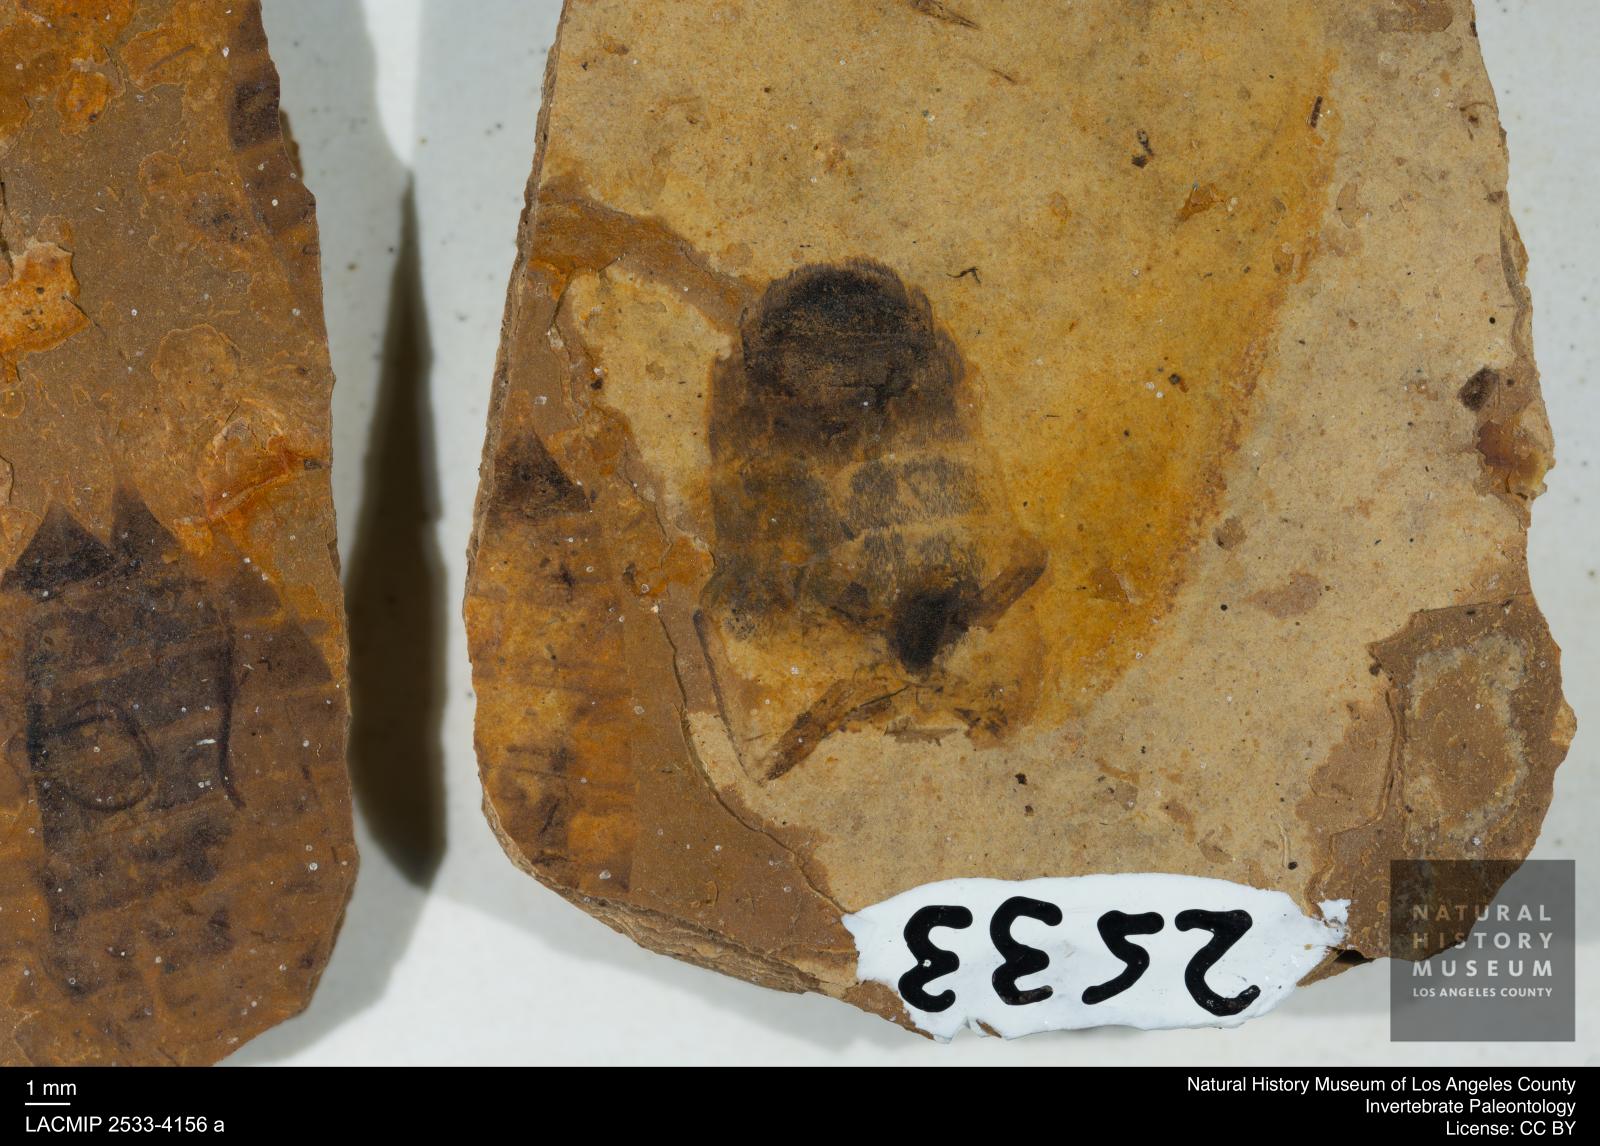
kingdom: Animalia
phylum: Arthropoda
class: Insecta
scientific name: Insecta
